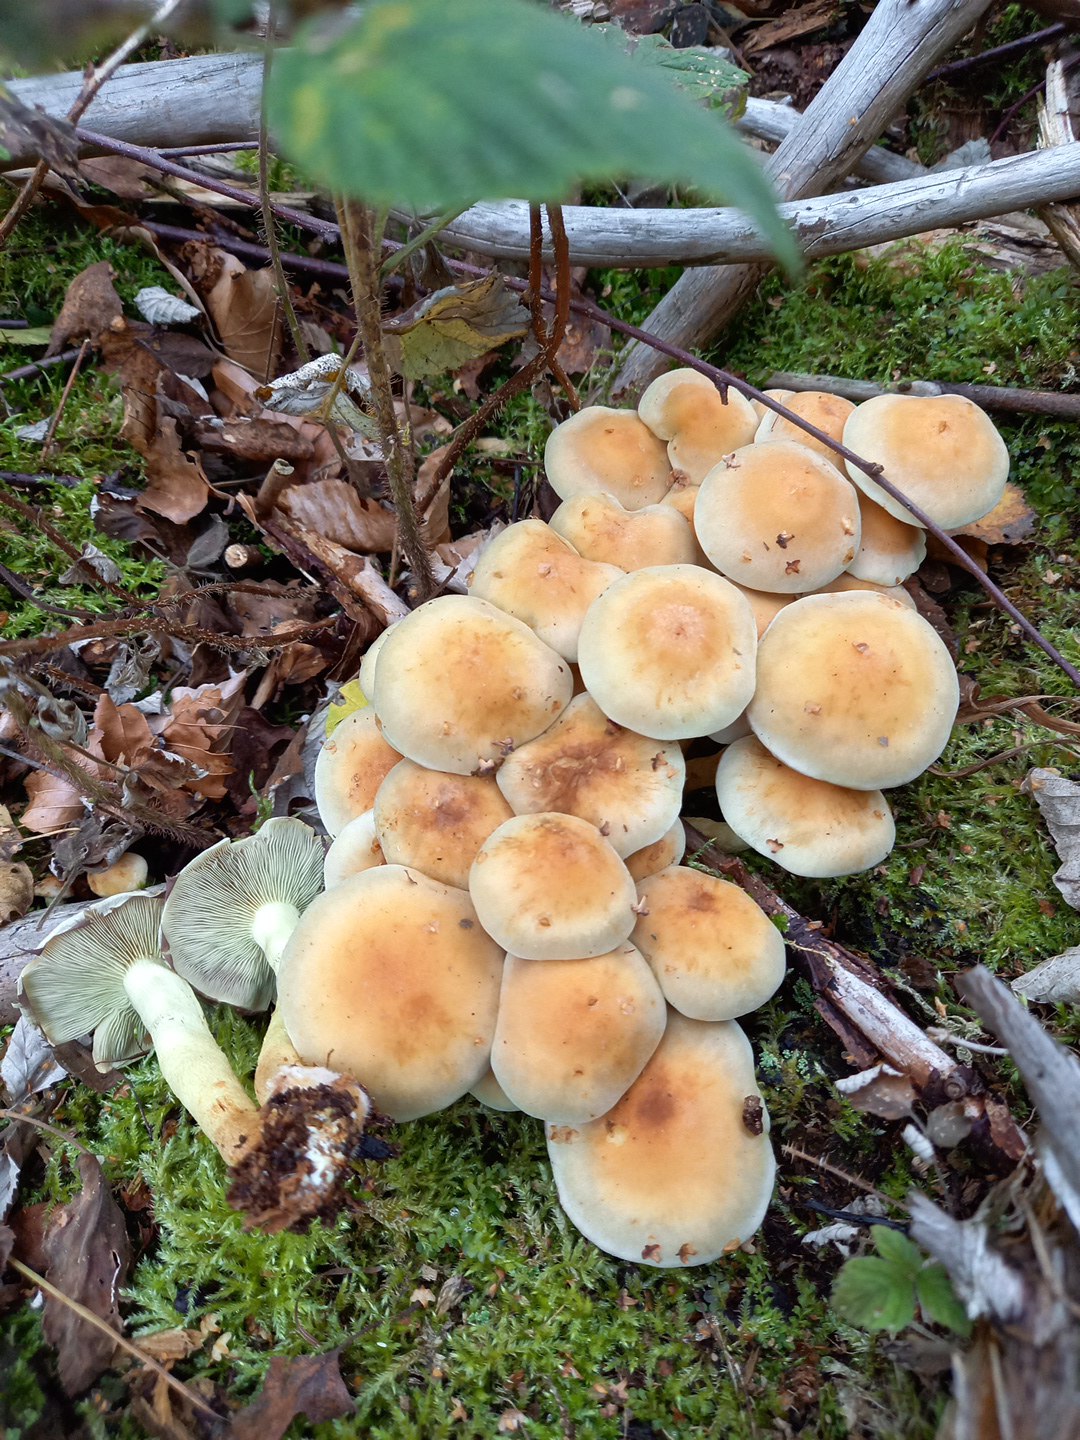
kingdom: Fungi
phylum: Basidiomycota
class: Agaricomycetes
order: Agaricales
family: Strophariaceae
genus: Hypholoma
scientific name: Hypholoma fasciculare
